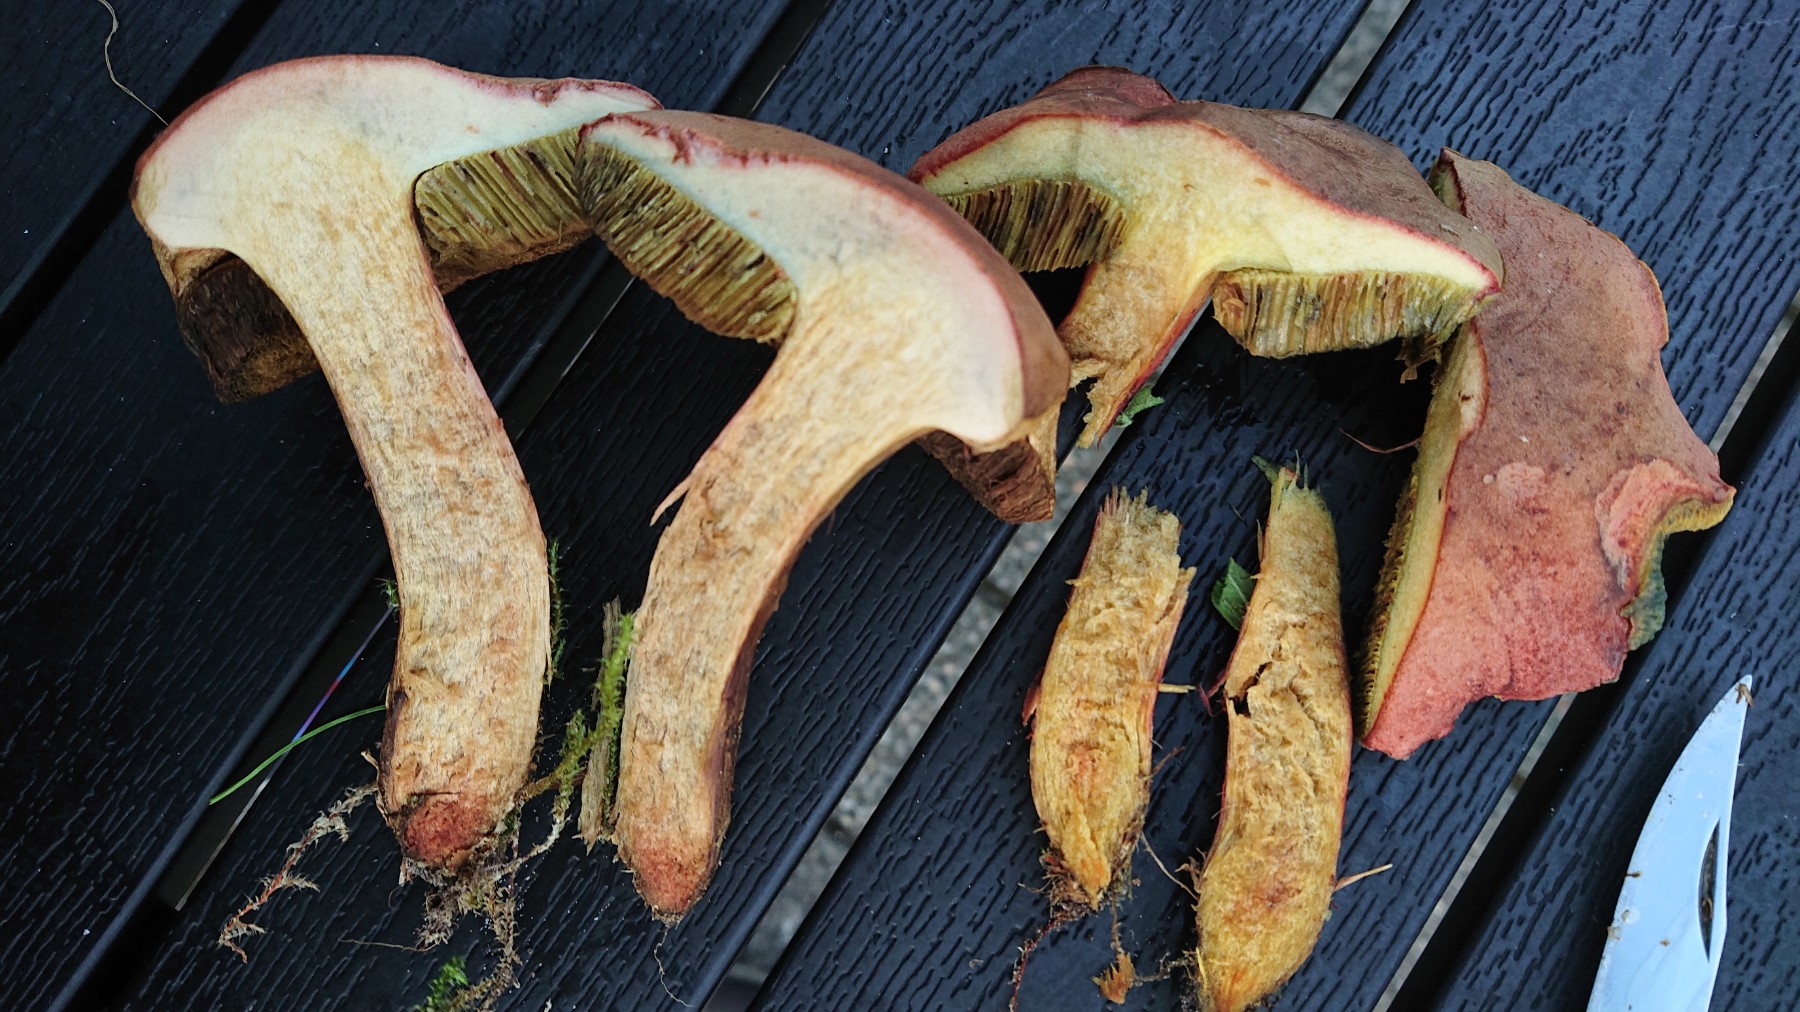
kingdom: Fungi
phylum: Basidiomycota
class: Agaricomycetes
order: Boletales
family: Boletaceae
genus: Hortiboletus
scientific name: Hortiboletus rubellus
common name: blodrød rørhat
